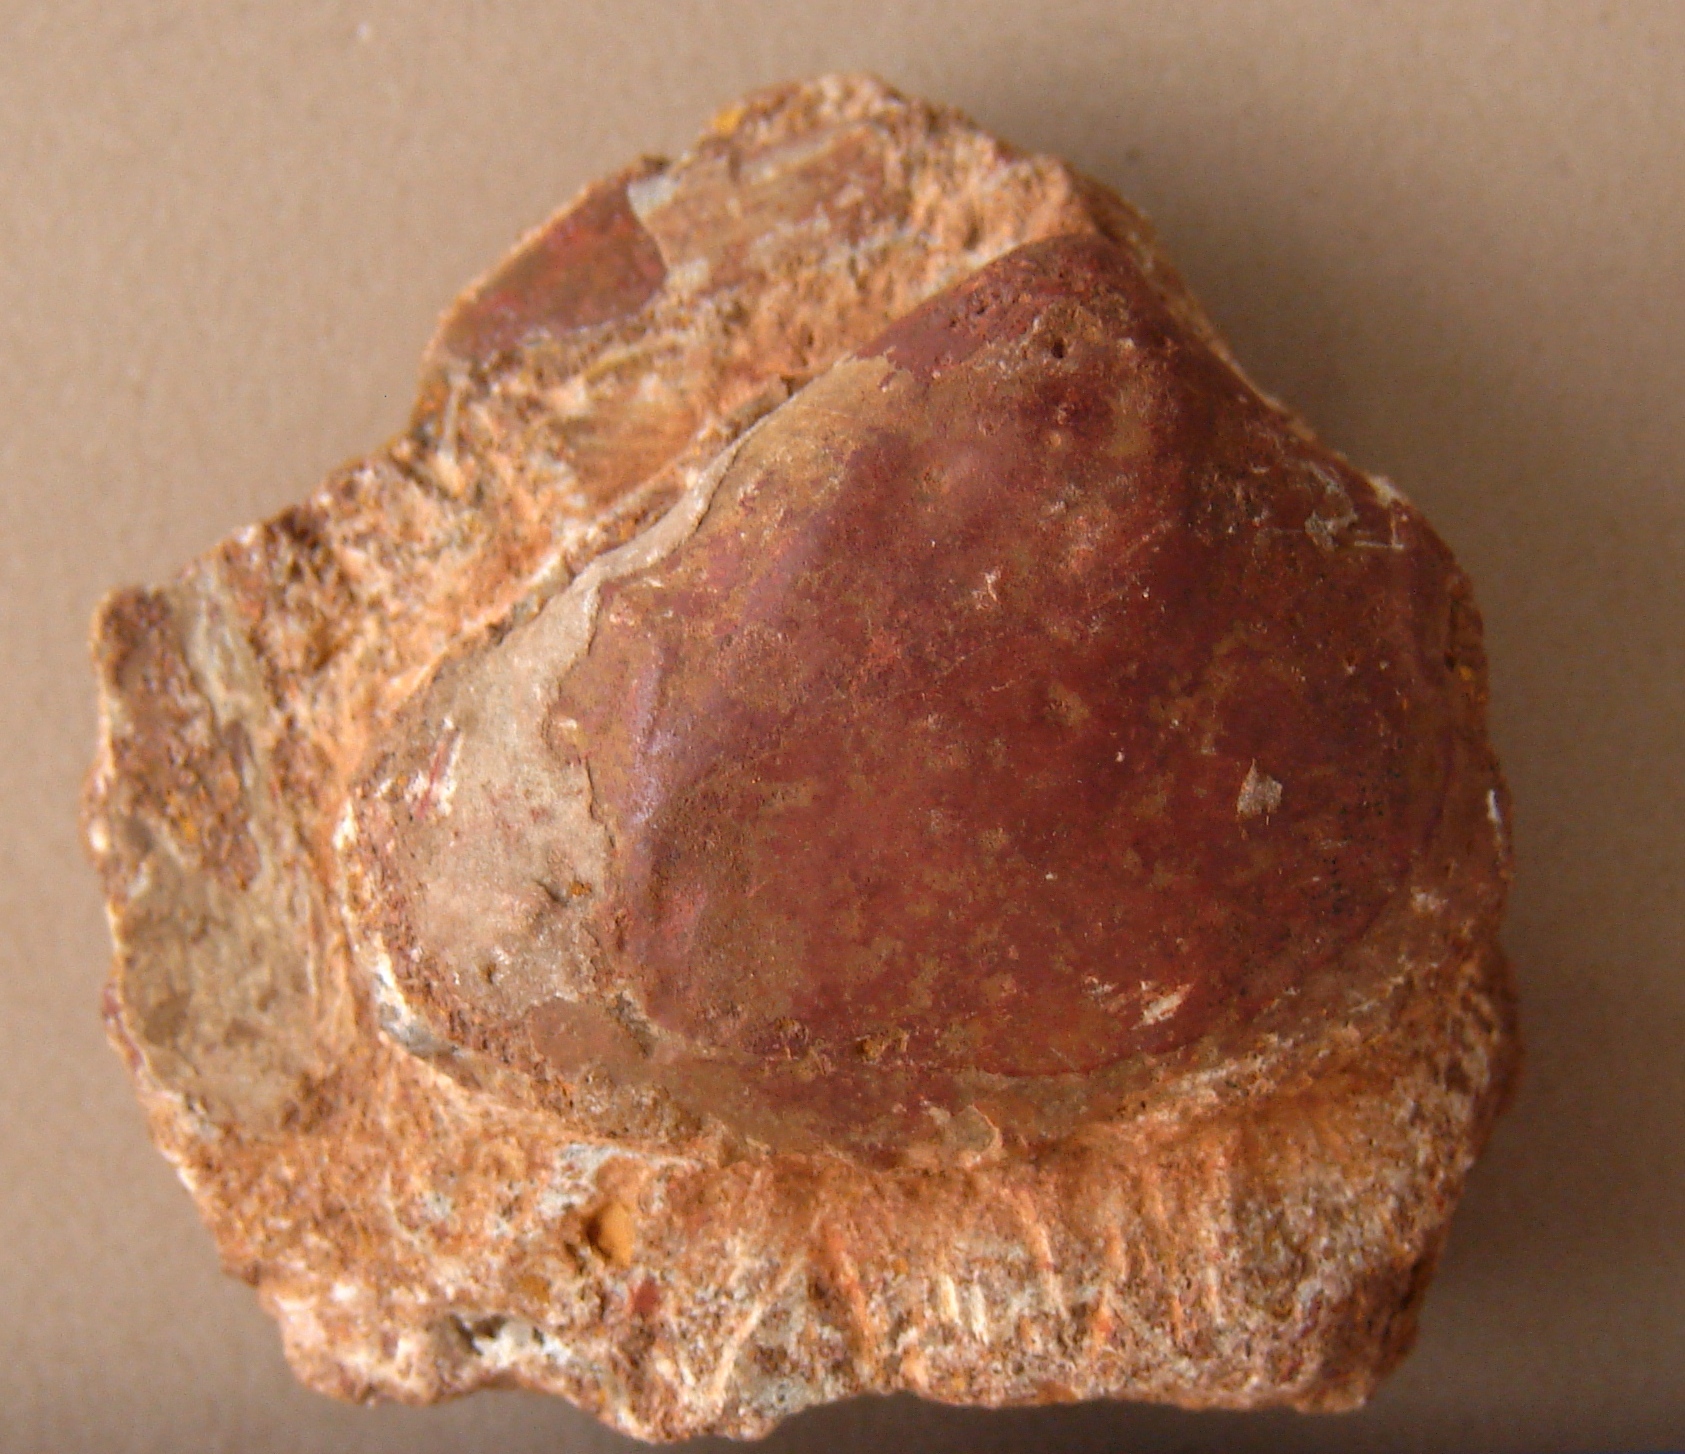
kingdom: Animalia
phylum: Mollusca
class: Bivalvia
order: Venerida
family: Arcticidae
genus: Pronoella
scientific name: Pronoella
